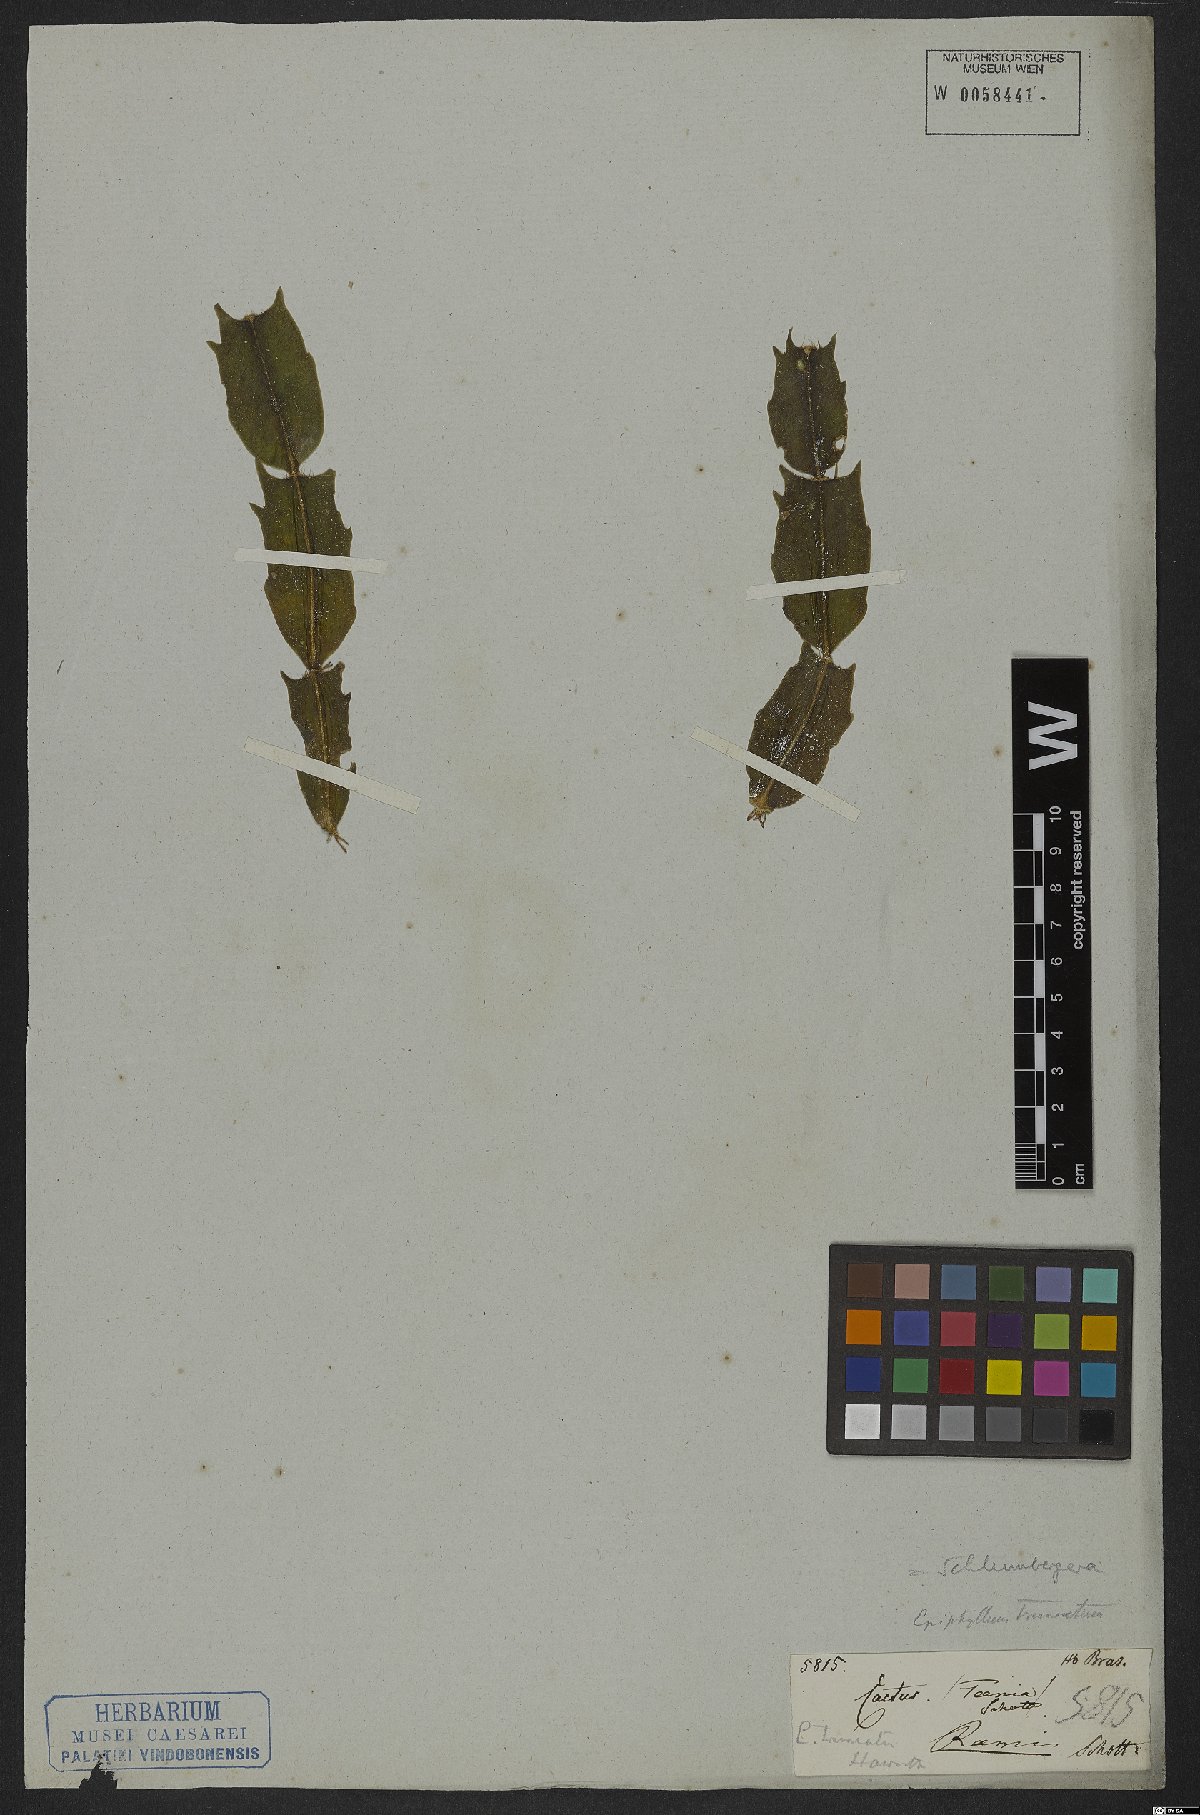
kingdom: Plantae
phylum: Tracheophyta
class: Magnoliopsida
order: Caryophyllales
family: Cactaceae
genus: Schlumbergera
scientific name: Schlumbergera truncata
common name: Thanksgiving cactus
